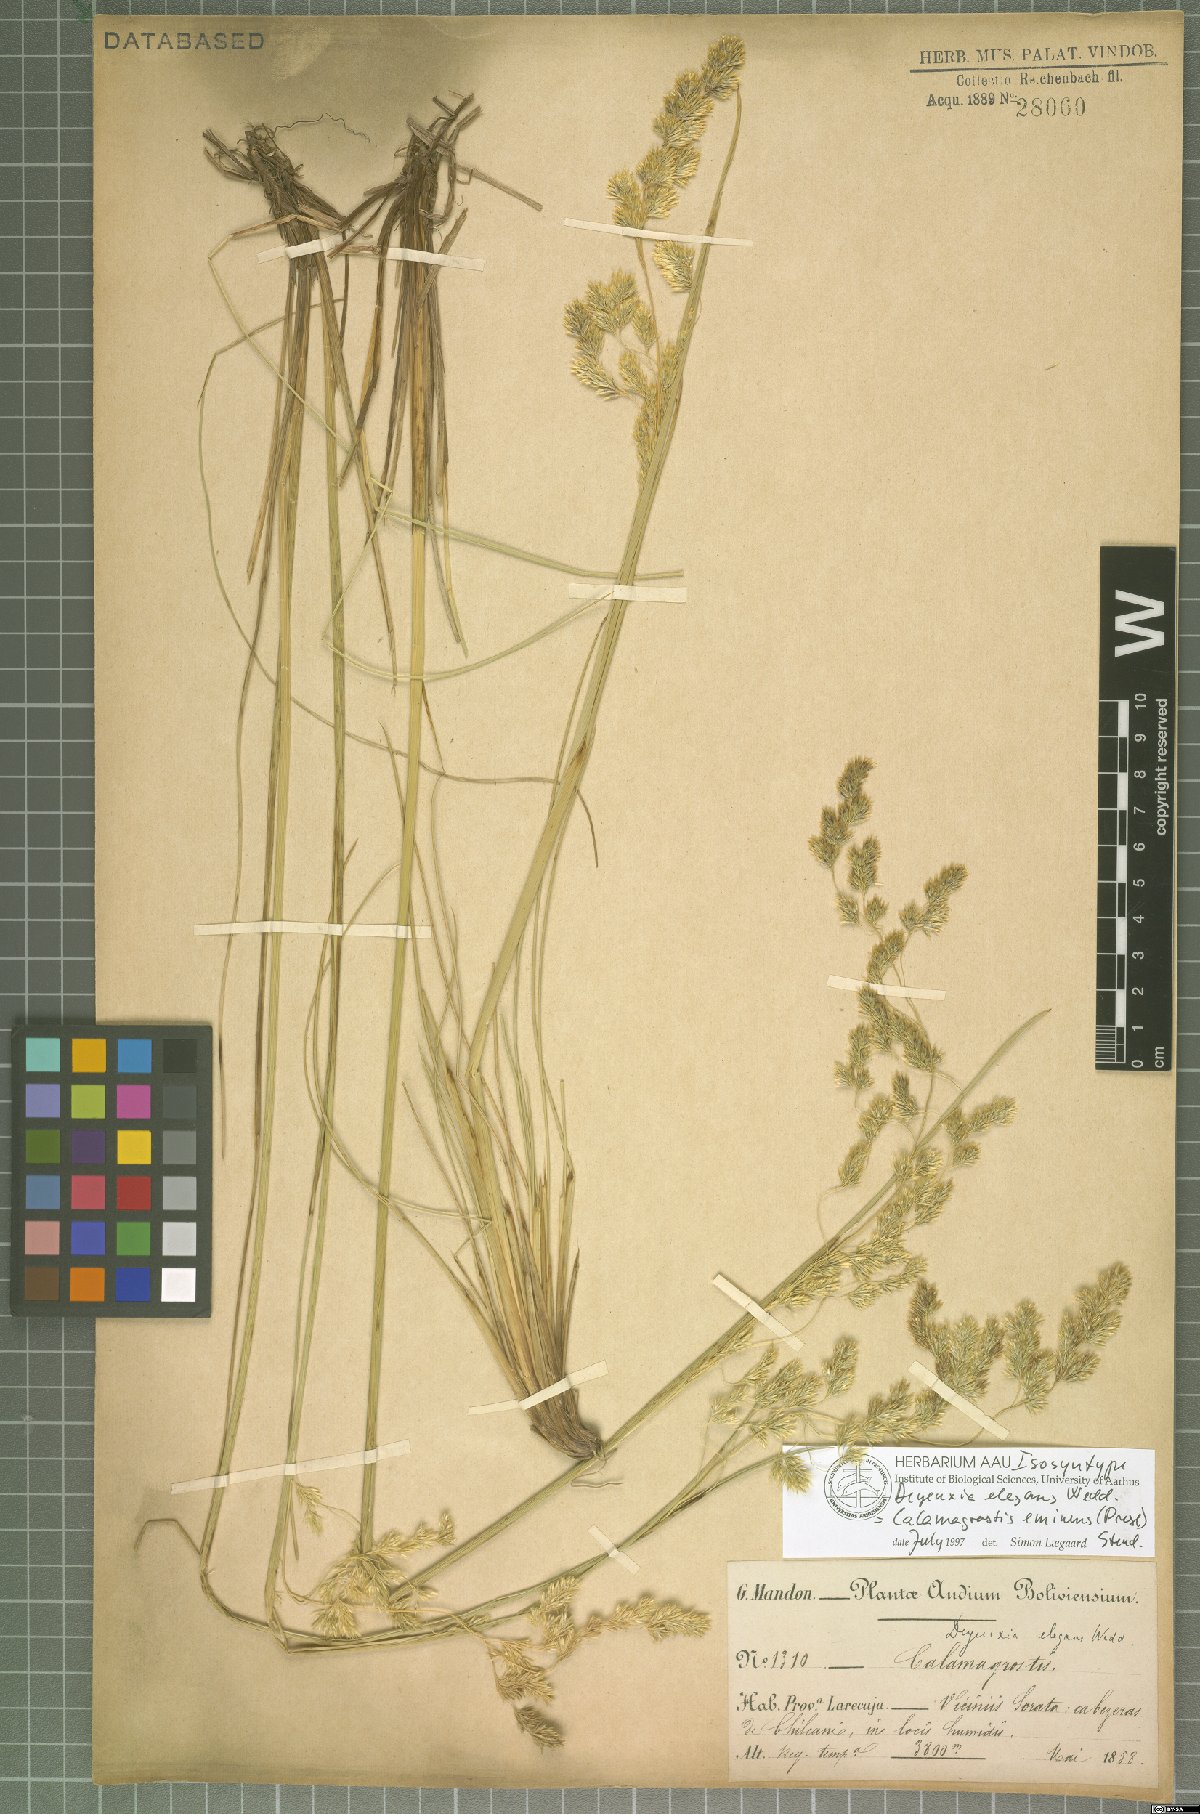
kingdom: Plantae
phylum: Tracheophyta
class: Liliopsida
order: Poales
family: Poaceae
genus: Deschampsia
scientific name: Deschampsia eminens
